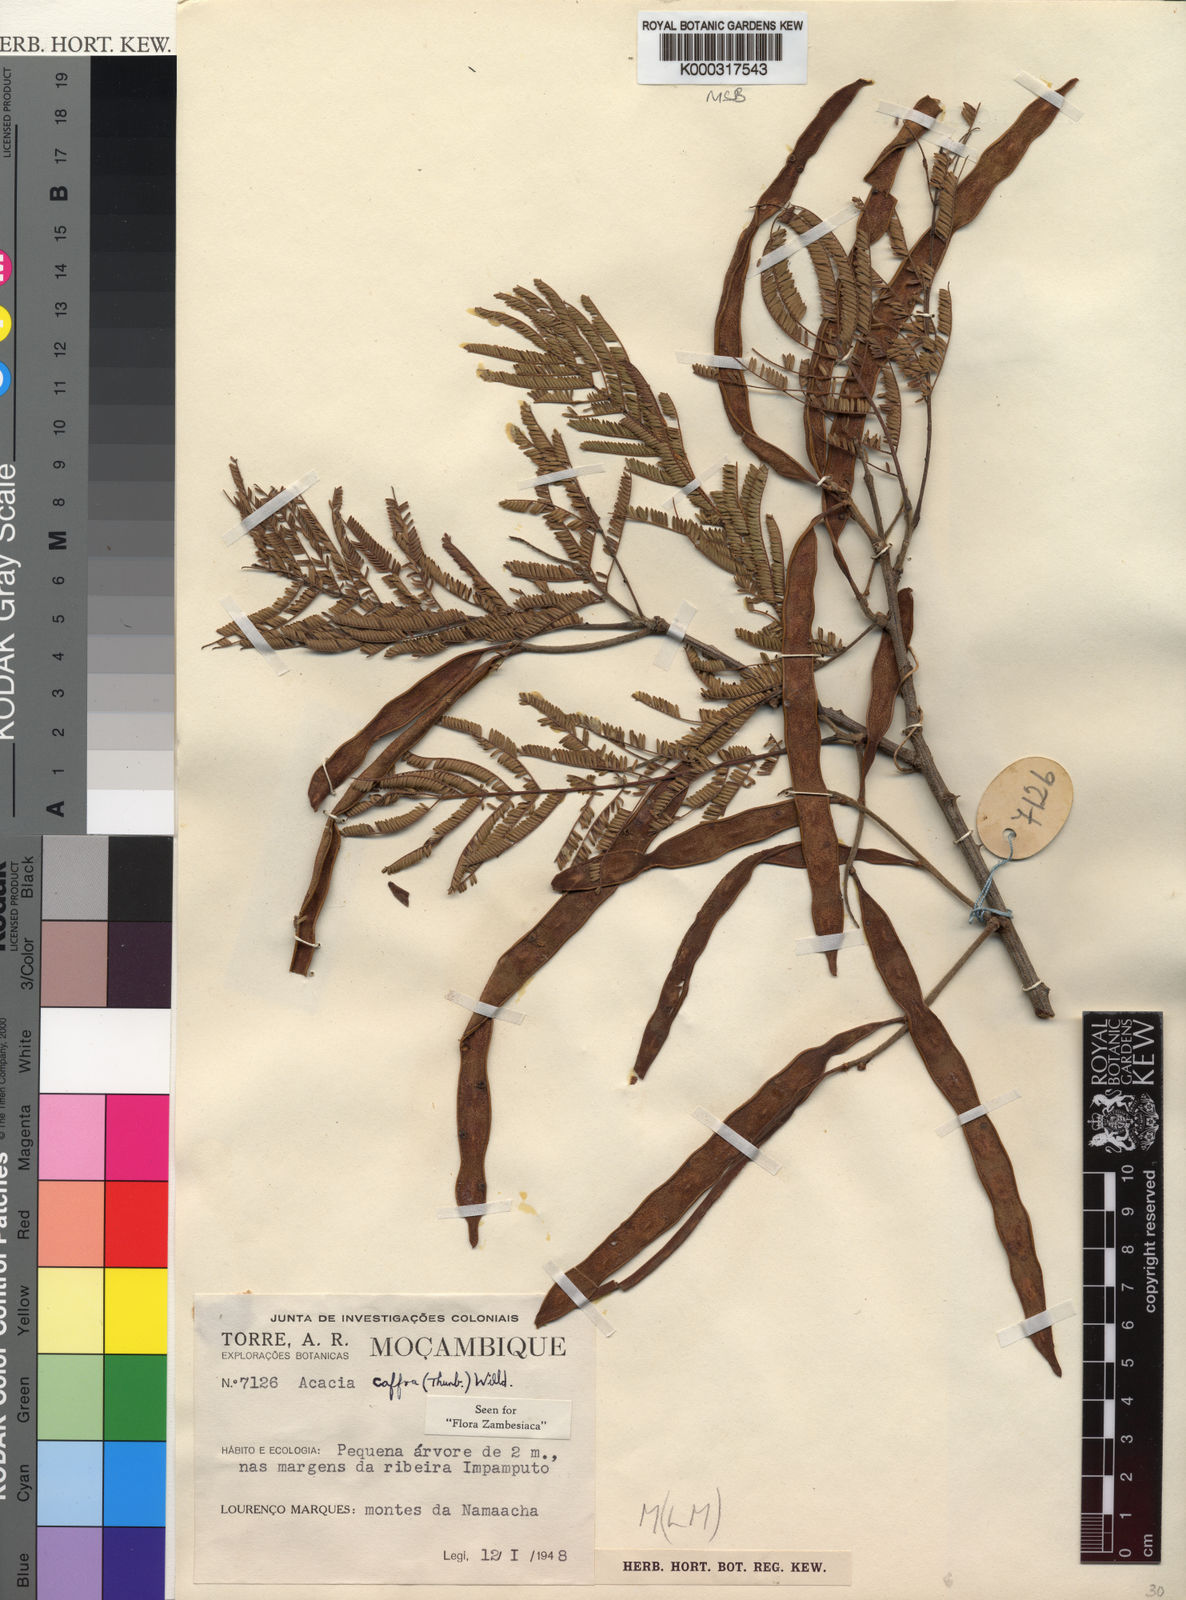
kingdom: Plantae
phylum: Tracheophyta
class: Magnoliopsida
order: Fabales
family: Fabaceae
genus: Senegalia
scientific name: Senegalia caffra
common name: Cat thorn
